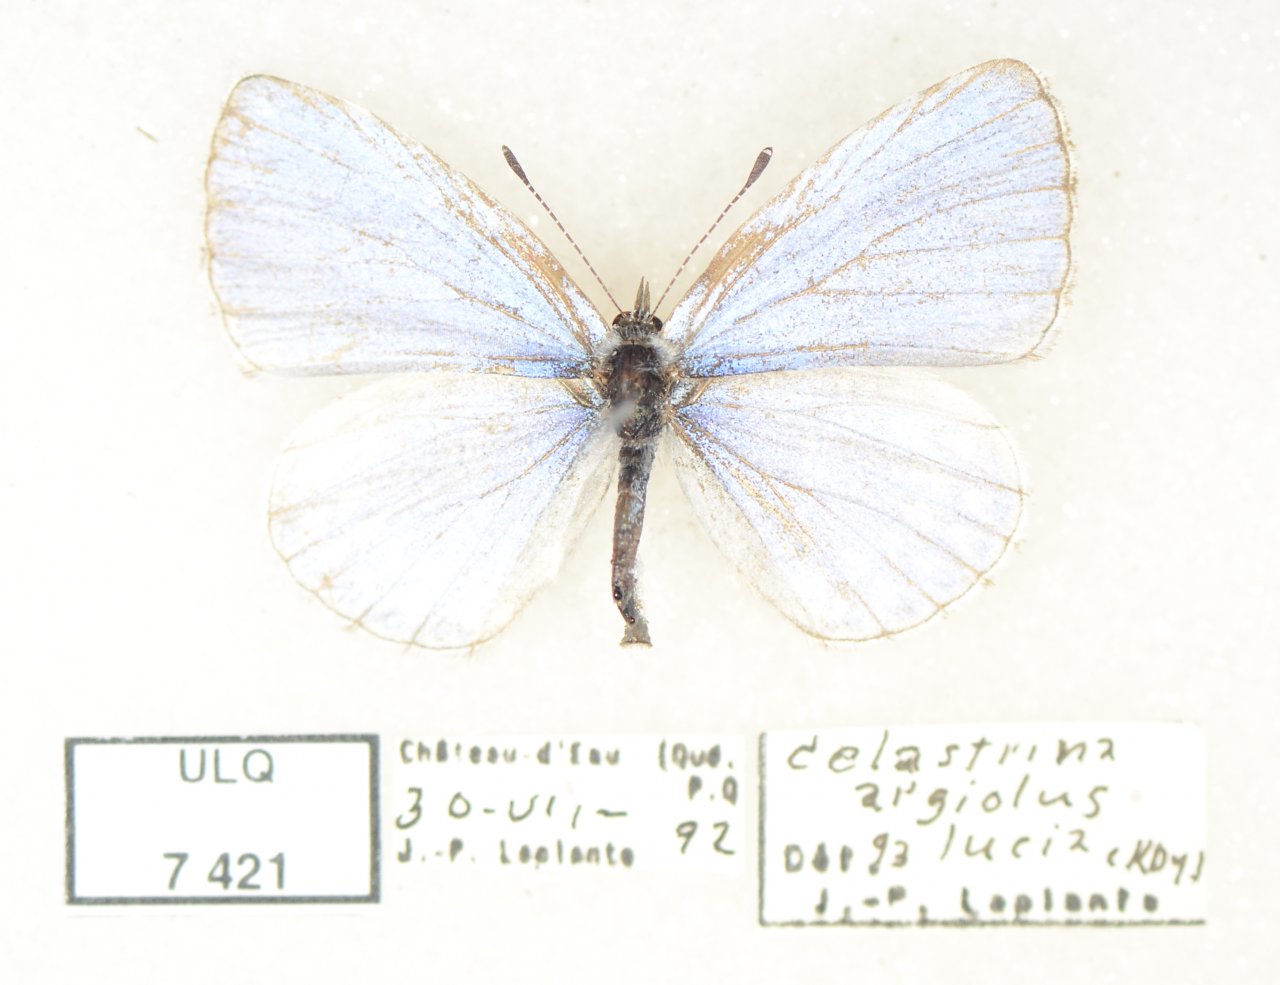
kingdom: Animalia
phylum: Arthropoda
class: Insecta
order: Lepidoptera
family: Lycaenidae
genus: Celastrina
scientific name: Celastrina lucia
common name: Northern Spring Azure
